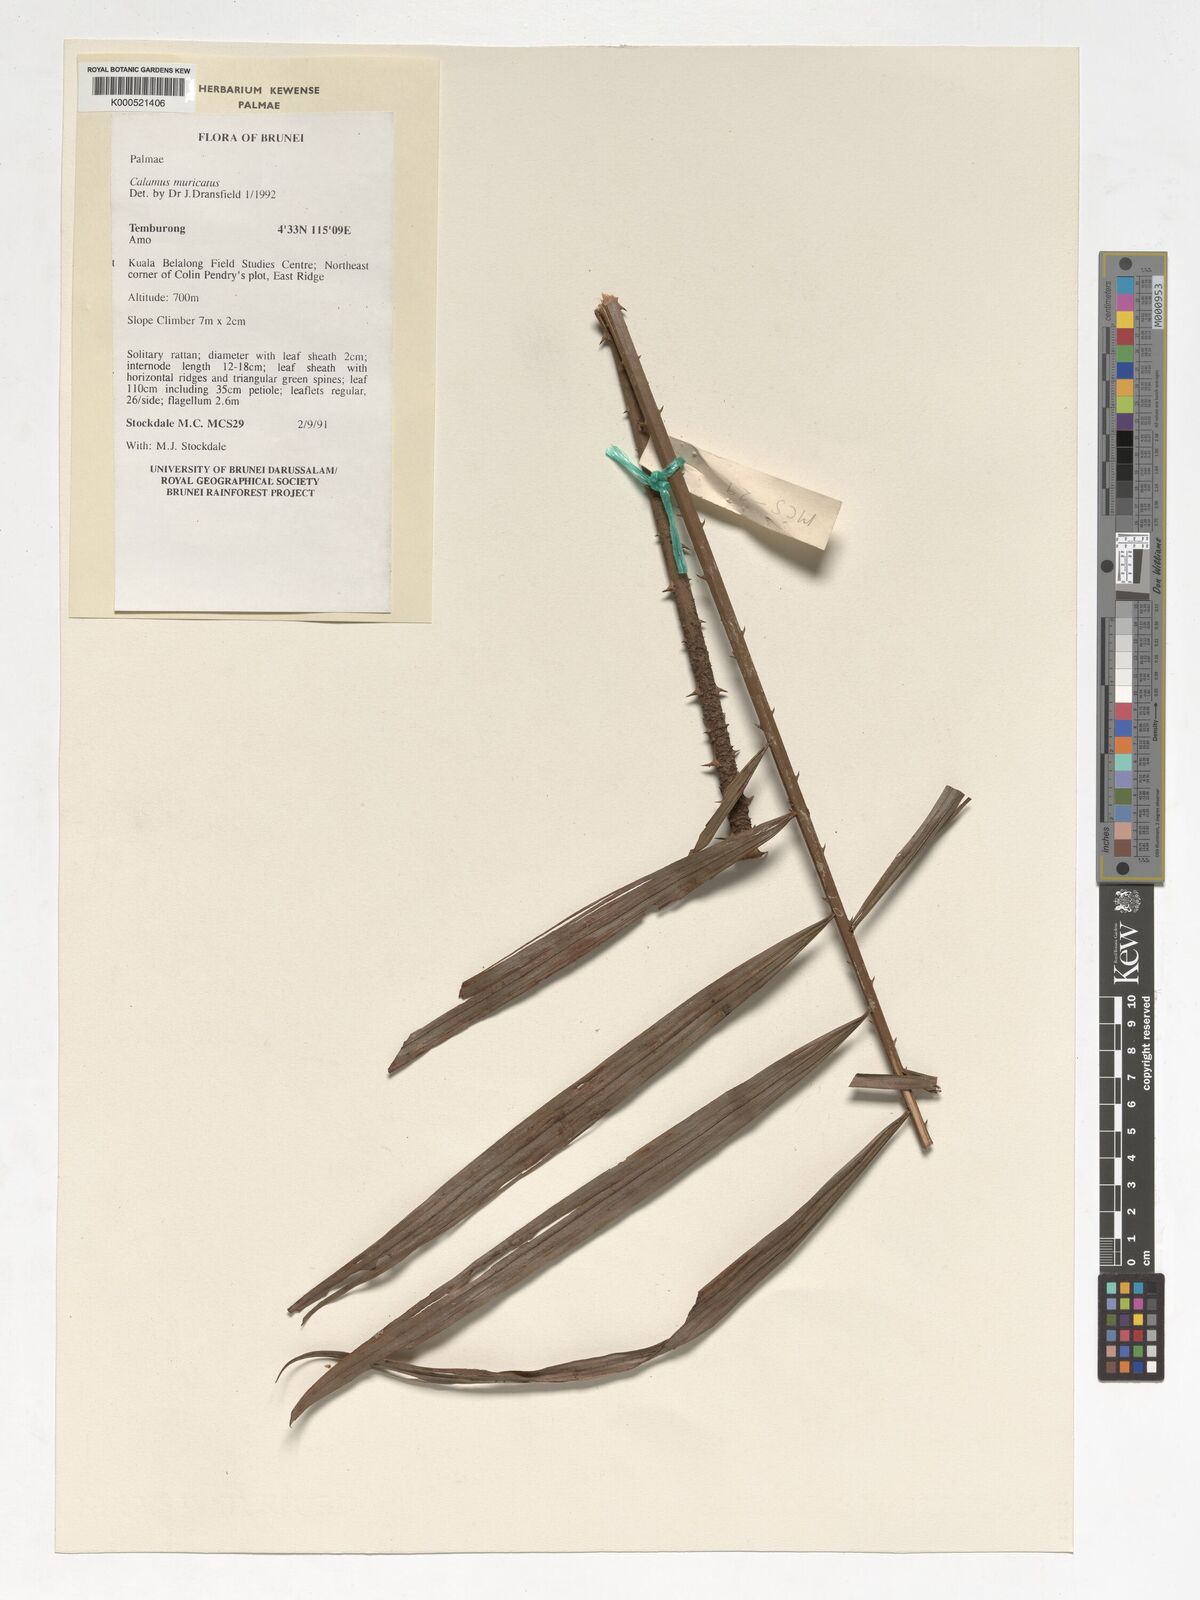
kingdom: Plantae
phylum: Tracheophyta
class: Liliopsida
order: Arecales
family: Arecaceae
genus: Calamus
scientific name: Calamus muricatus
